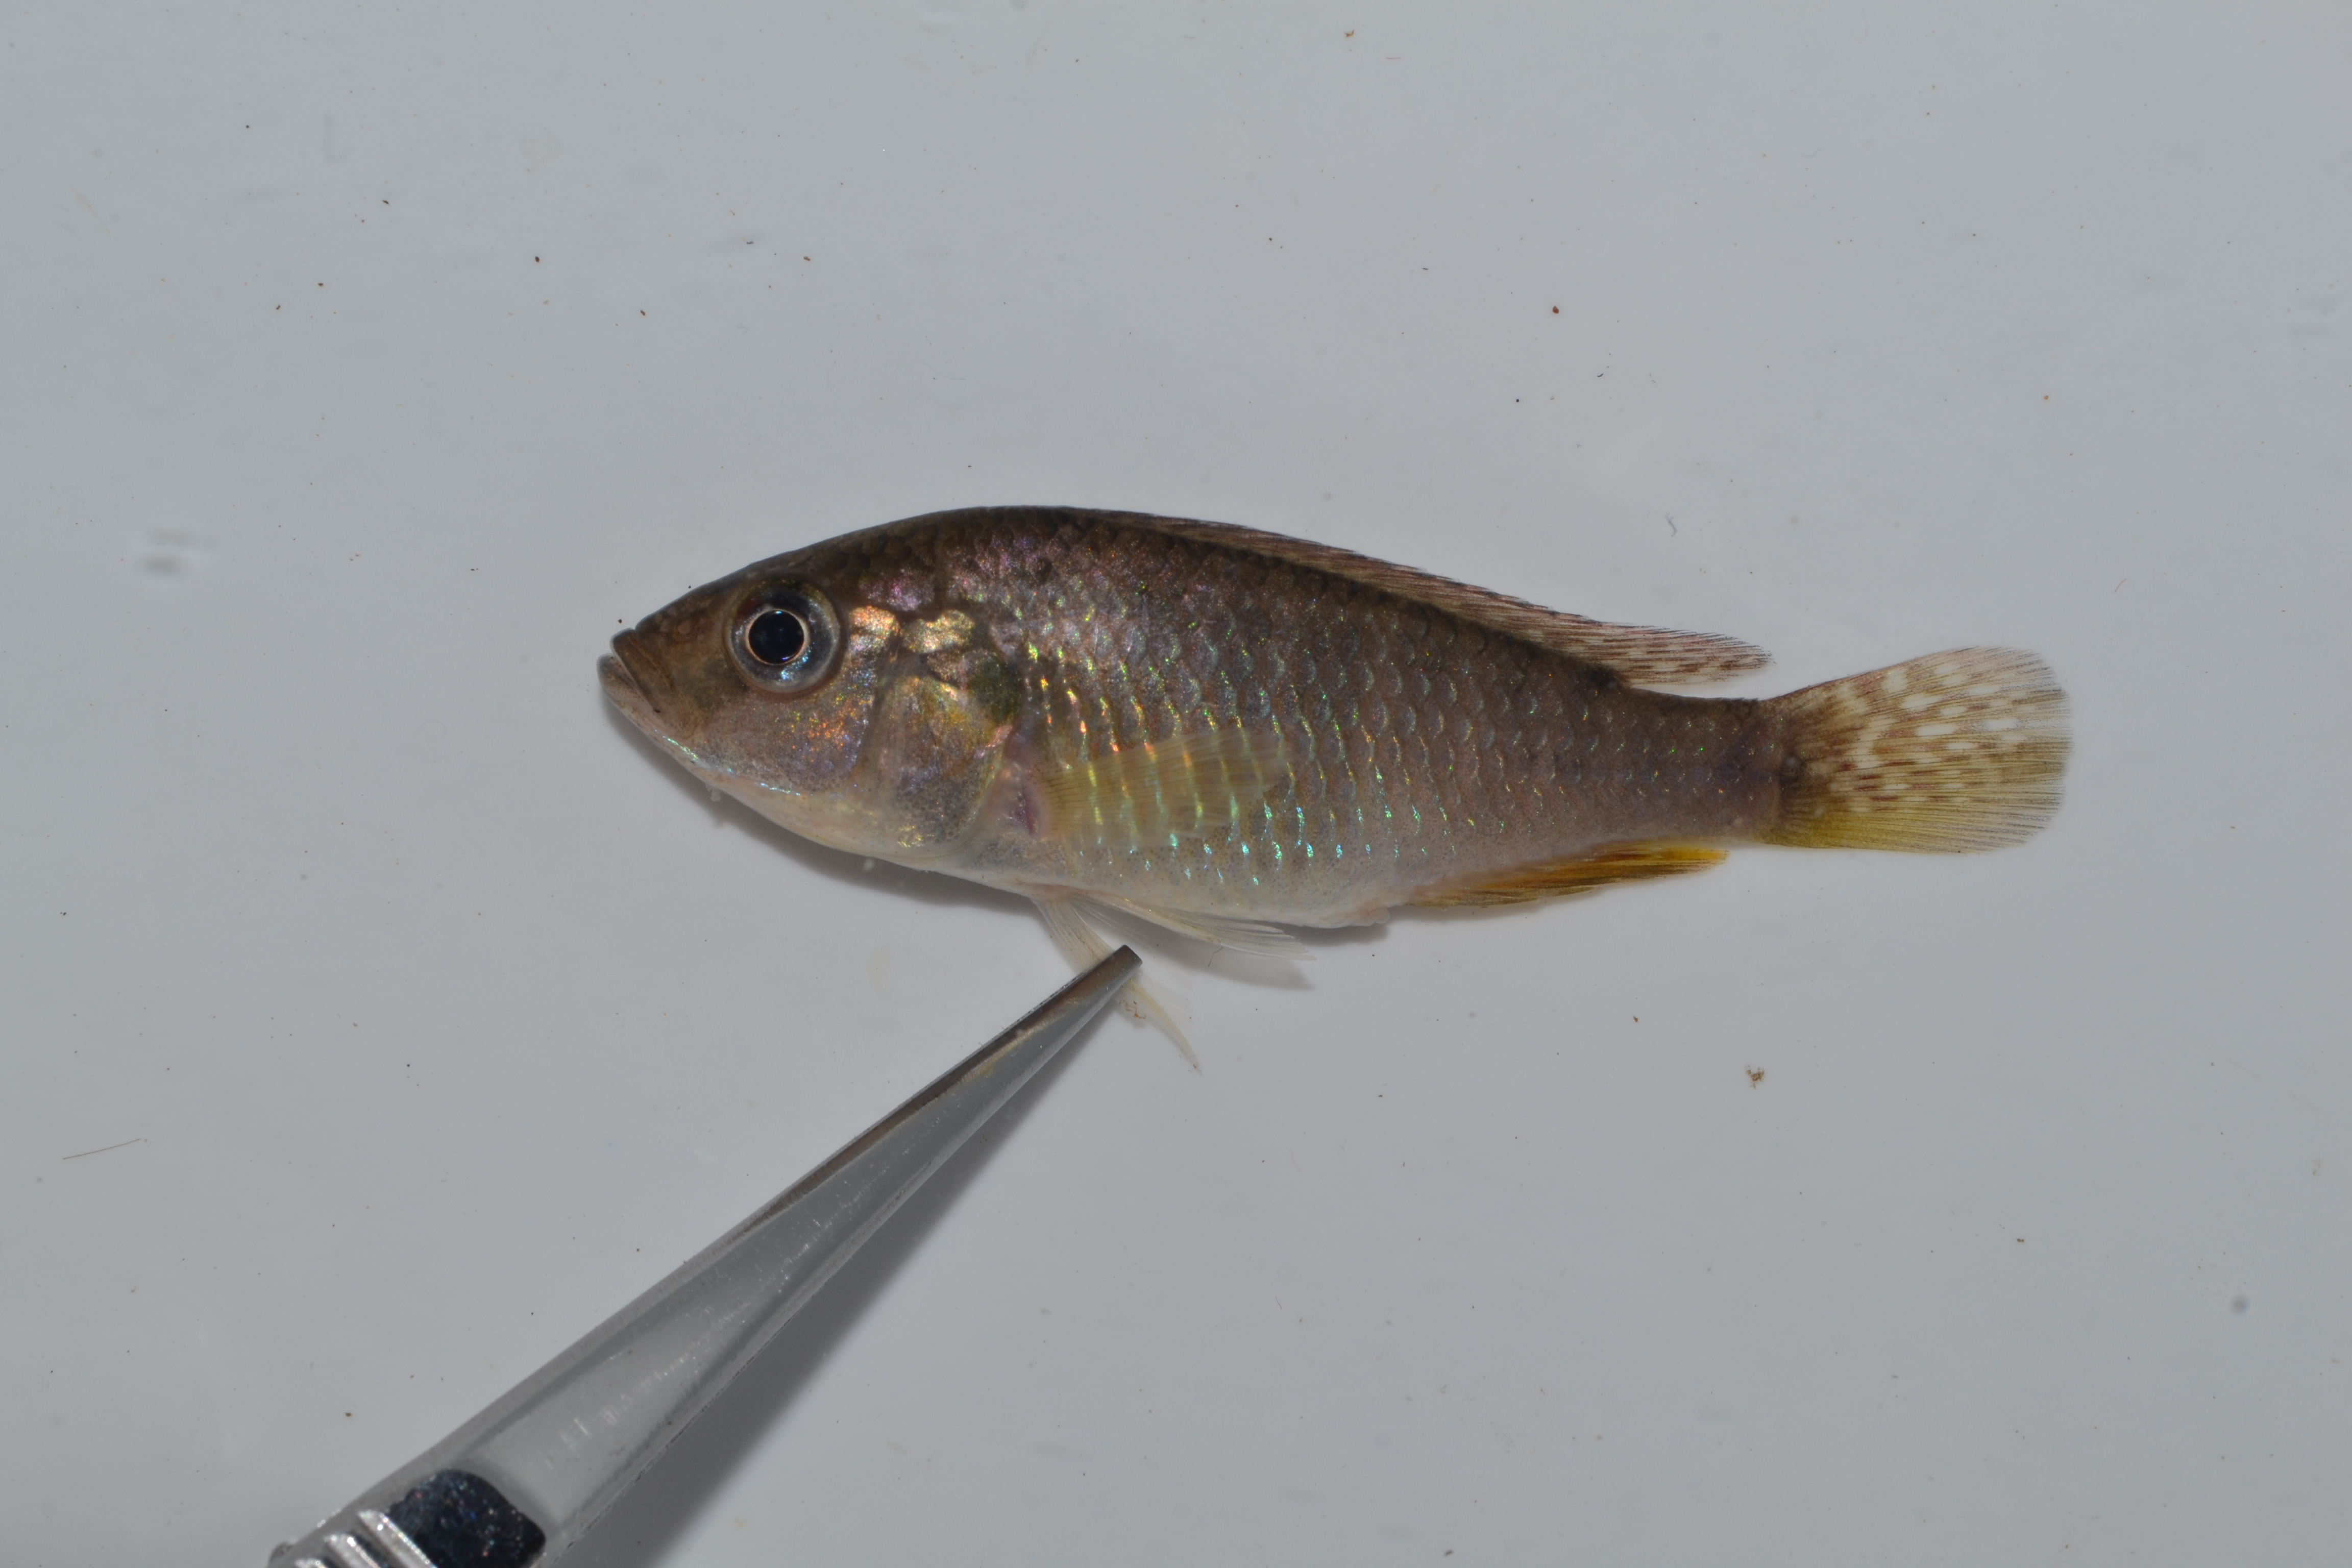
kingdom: Animalia
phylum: Chordata
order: Perciformes
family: Cichlidae
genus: Pseudocrenilabrus
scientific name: Pseudocrenilabrus philander
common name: Southern mouthbrooder
